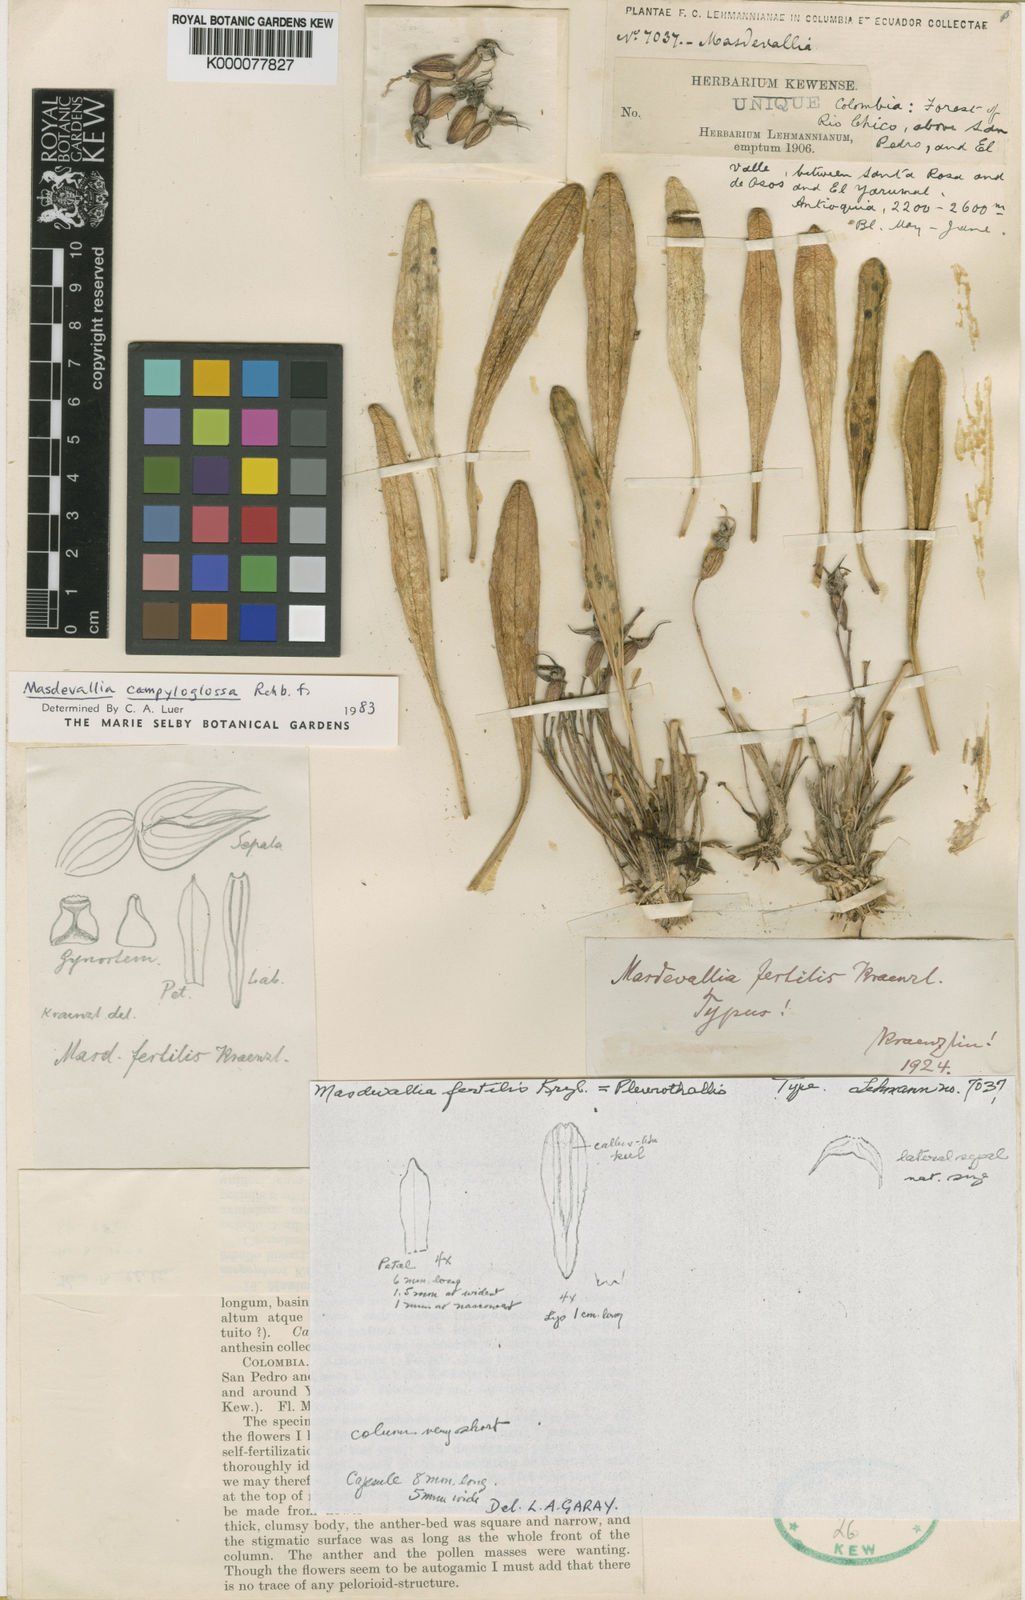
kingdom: Plantae
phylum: Tracheophyta
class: Liliopsida
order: Asparagales
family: Orchidaceae
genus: Masdevallia
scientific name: Masdevallia campyloglossa
